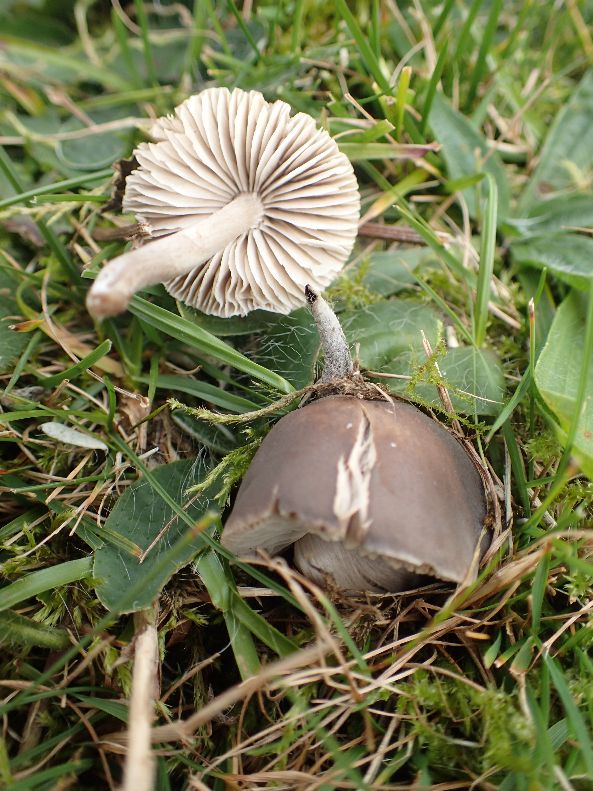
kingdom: Fungi
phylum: Basidiomycota
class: Agaricomycetes
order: Agaricales
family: Tricholomataceae
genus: Dermoloma
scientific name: Dermoloma cuneifolium
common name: eng-nonnehat
